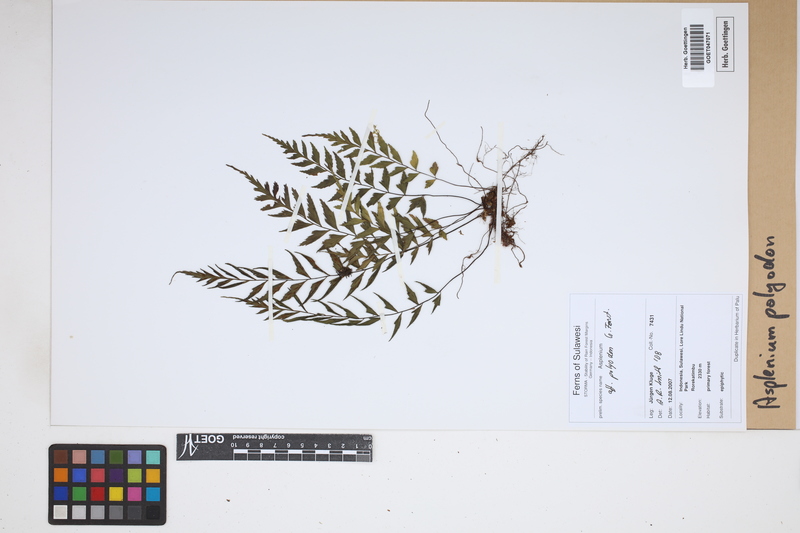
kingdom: Plantae
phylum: Tracheophyta
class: Polypodiopsida
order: Polypodiales
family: Aspleniaceae
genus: Asplenium
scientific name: Asplenium polyodon
